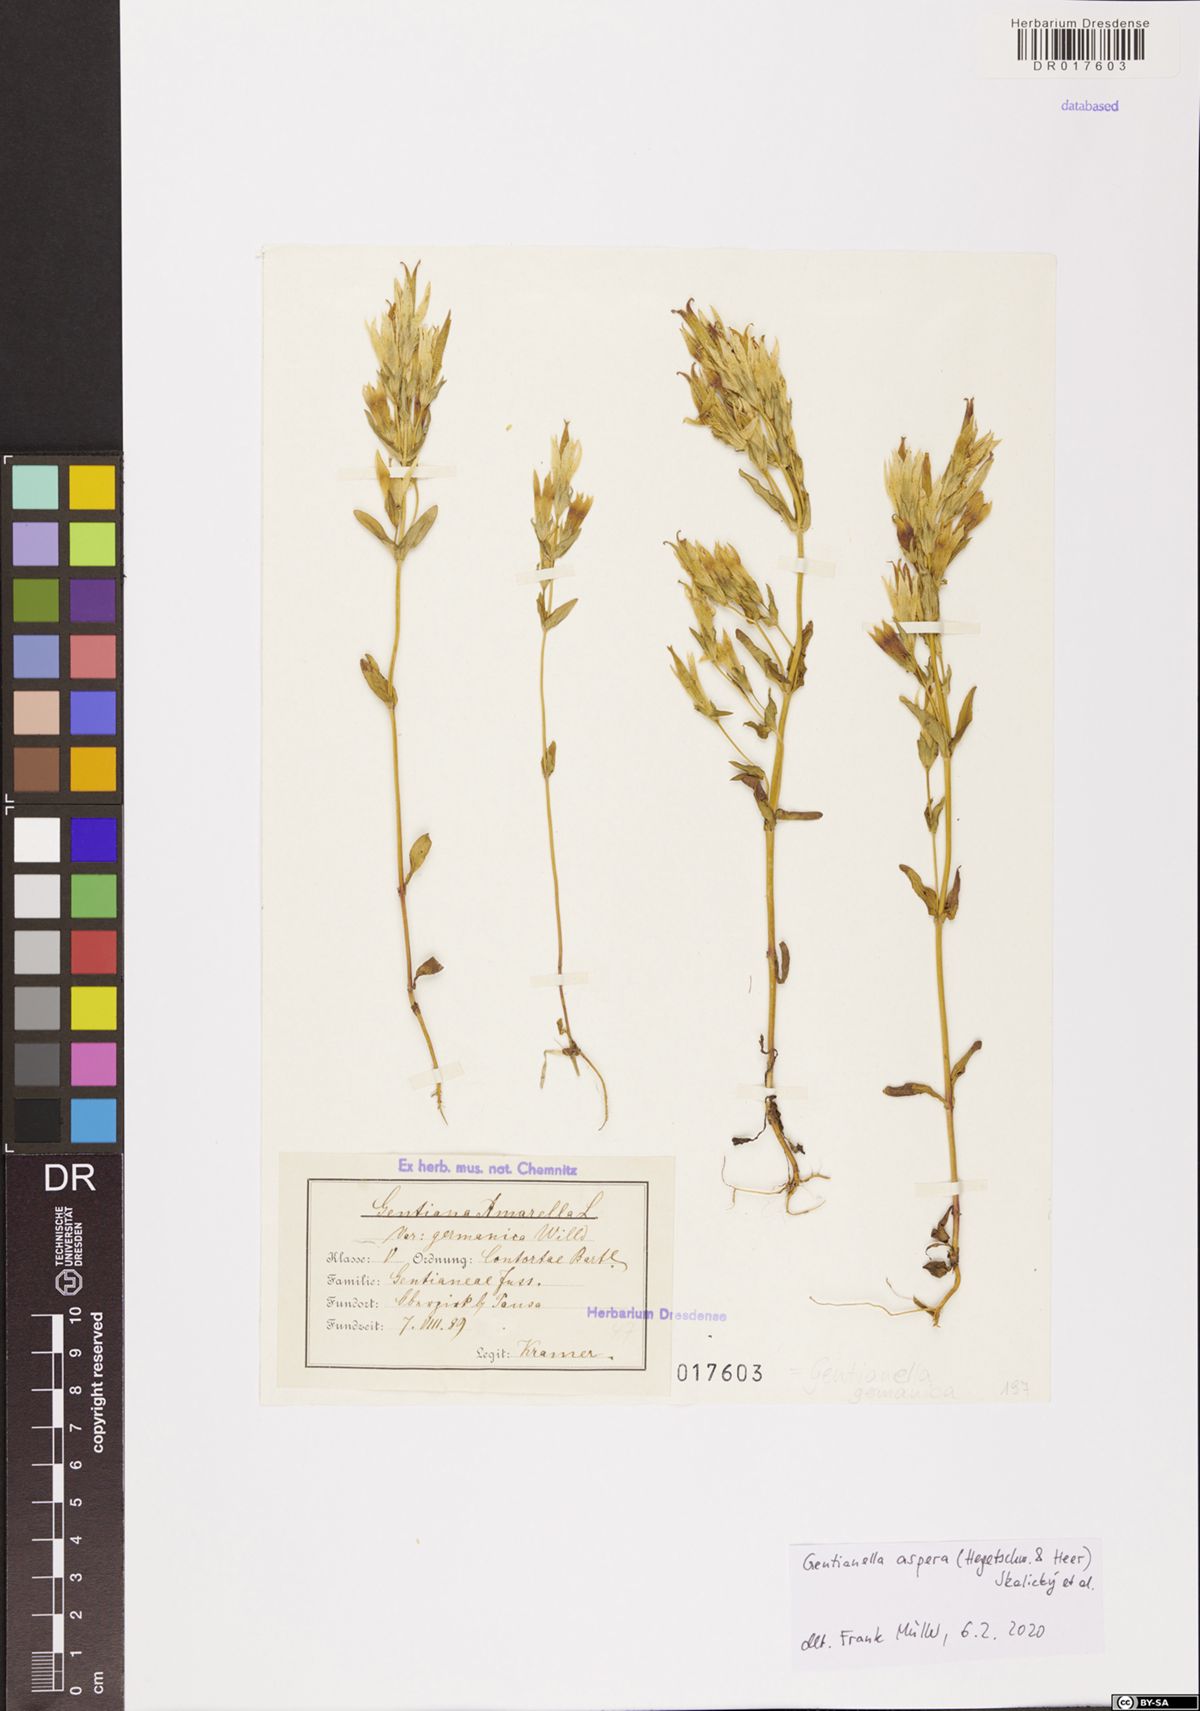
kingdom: Plantae
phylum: Tracheophyta
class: Magnoliopsida
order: Gentianales
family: Gentianaceae
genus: Gentianella
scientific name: Gentianella obtusifolia
